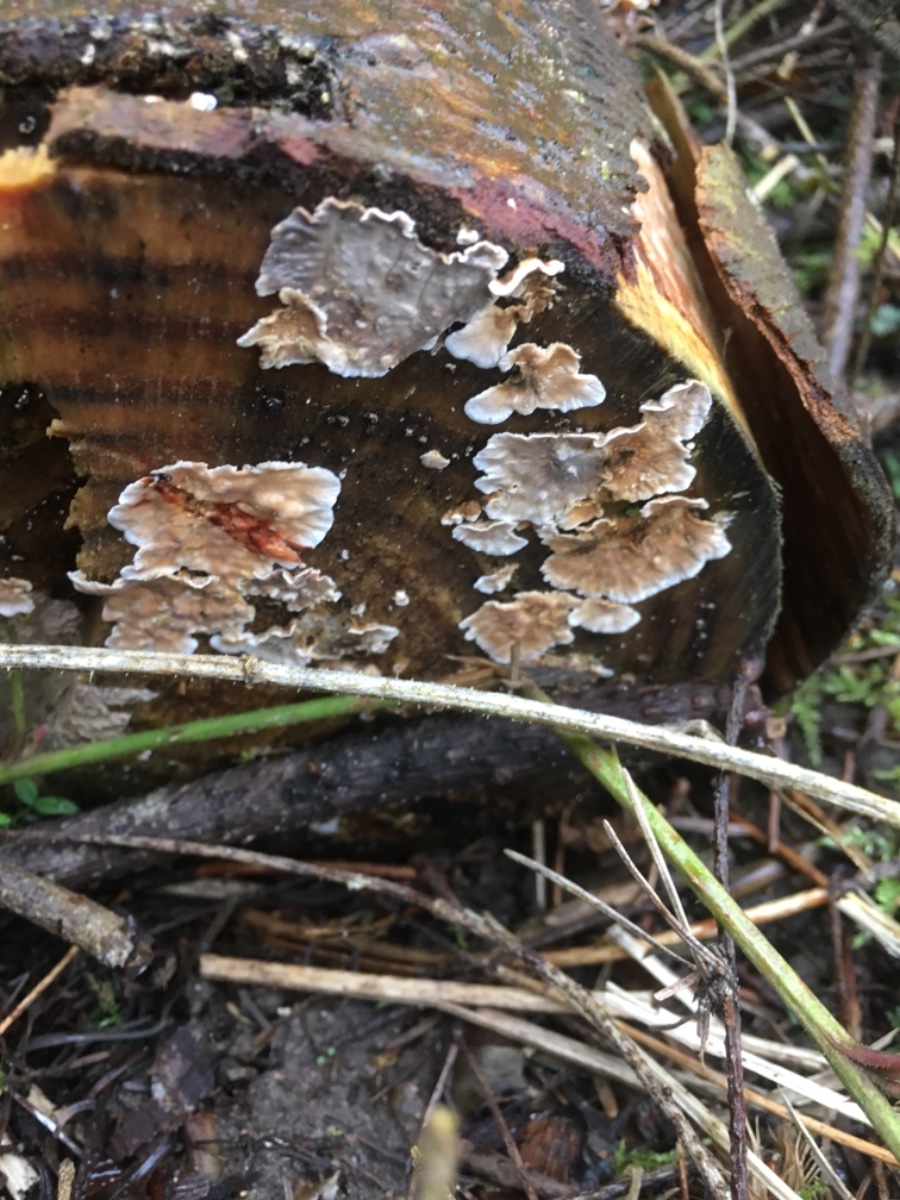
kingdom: Fungi
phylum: Basidiomycota
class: Agaricomycetes
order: Russulales
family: Stereaceae
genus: Stereum
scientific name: Stereum sanguinolentum
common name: blødende lædersvamp
